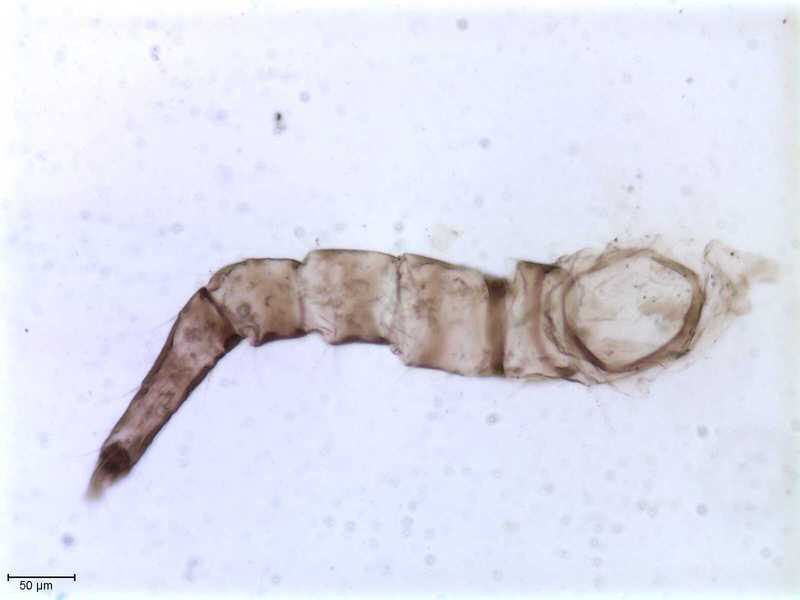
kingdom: Animalia
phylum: Arthropoda
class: Arachnida
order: Mesostigmata
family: Halarachnidae
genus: Orthohalarachne
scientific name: Orthohalarachne letalis
